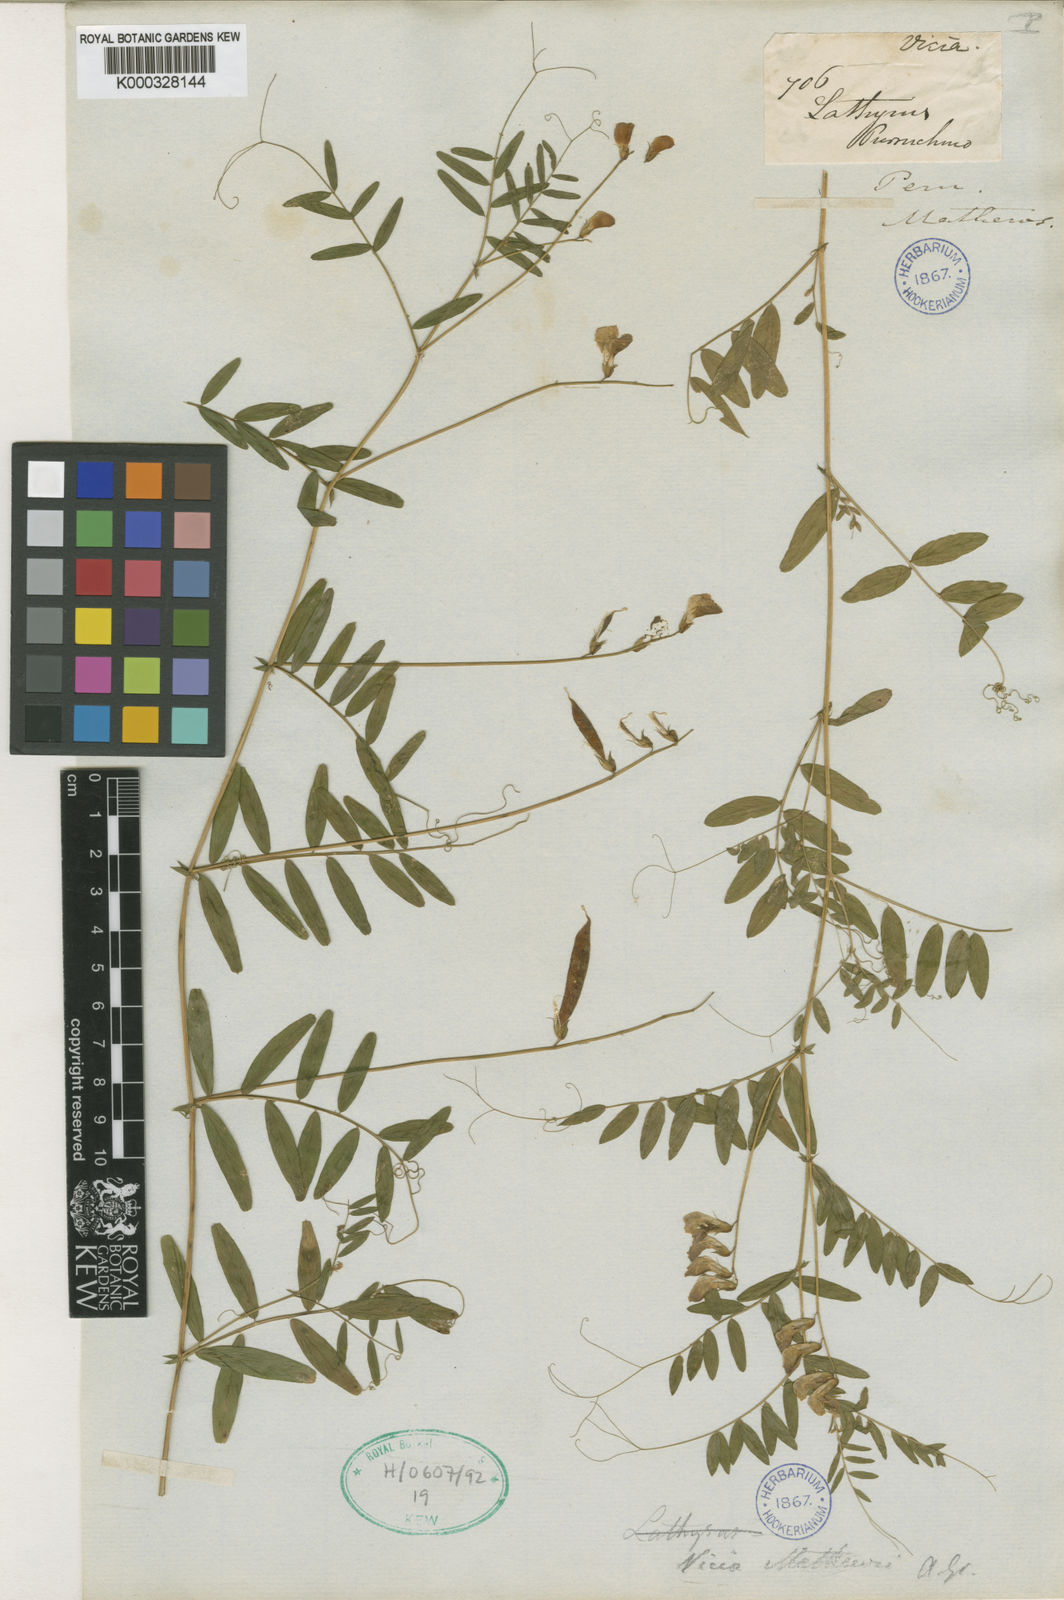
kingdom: Plantae
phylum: Tracheophyta
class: Magnoliopsida
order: Fabales
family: Fabaceae
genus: Vicia
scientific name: Vicia
